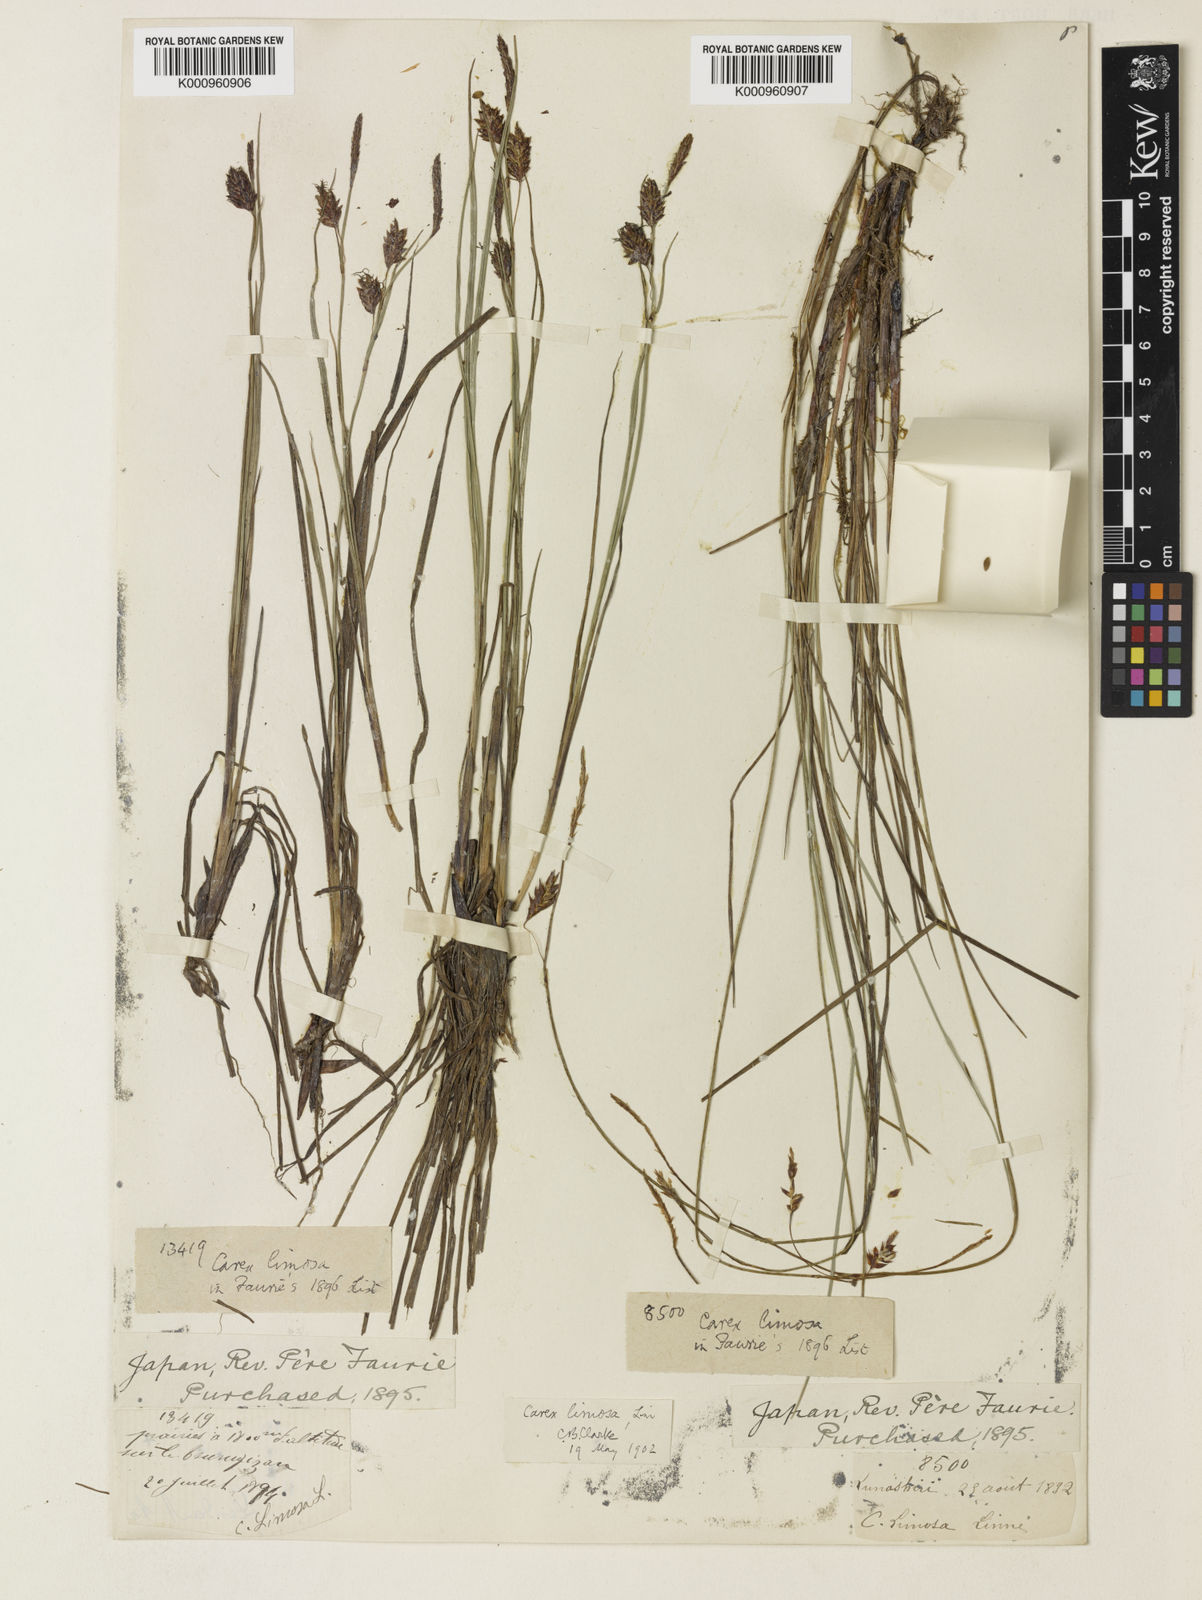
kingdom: Plantae
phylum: Tracheophyta
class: Liliopsida
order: Poales
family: Cyperaceae
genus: Carex
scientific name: Carex limosa
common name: Bog sedge
